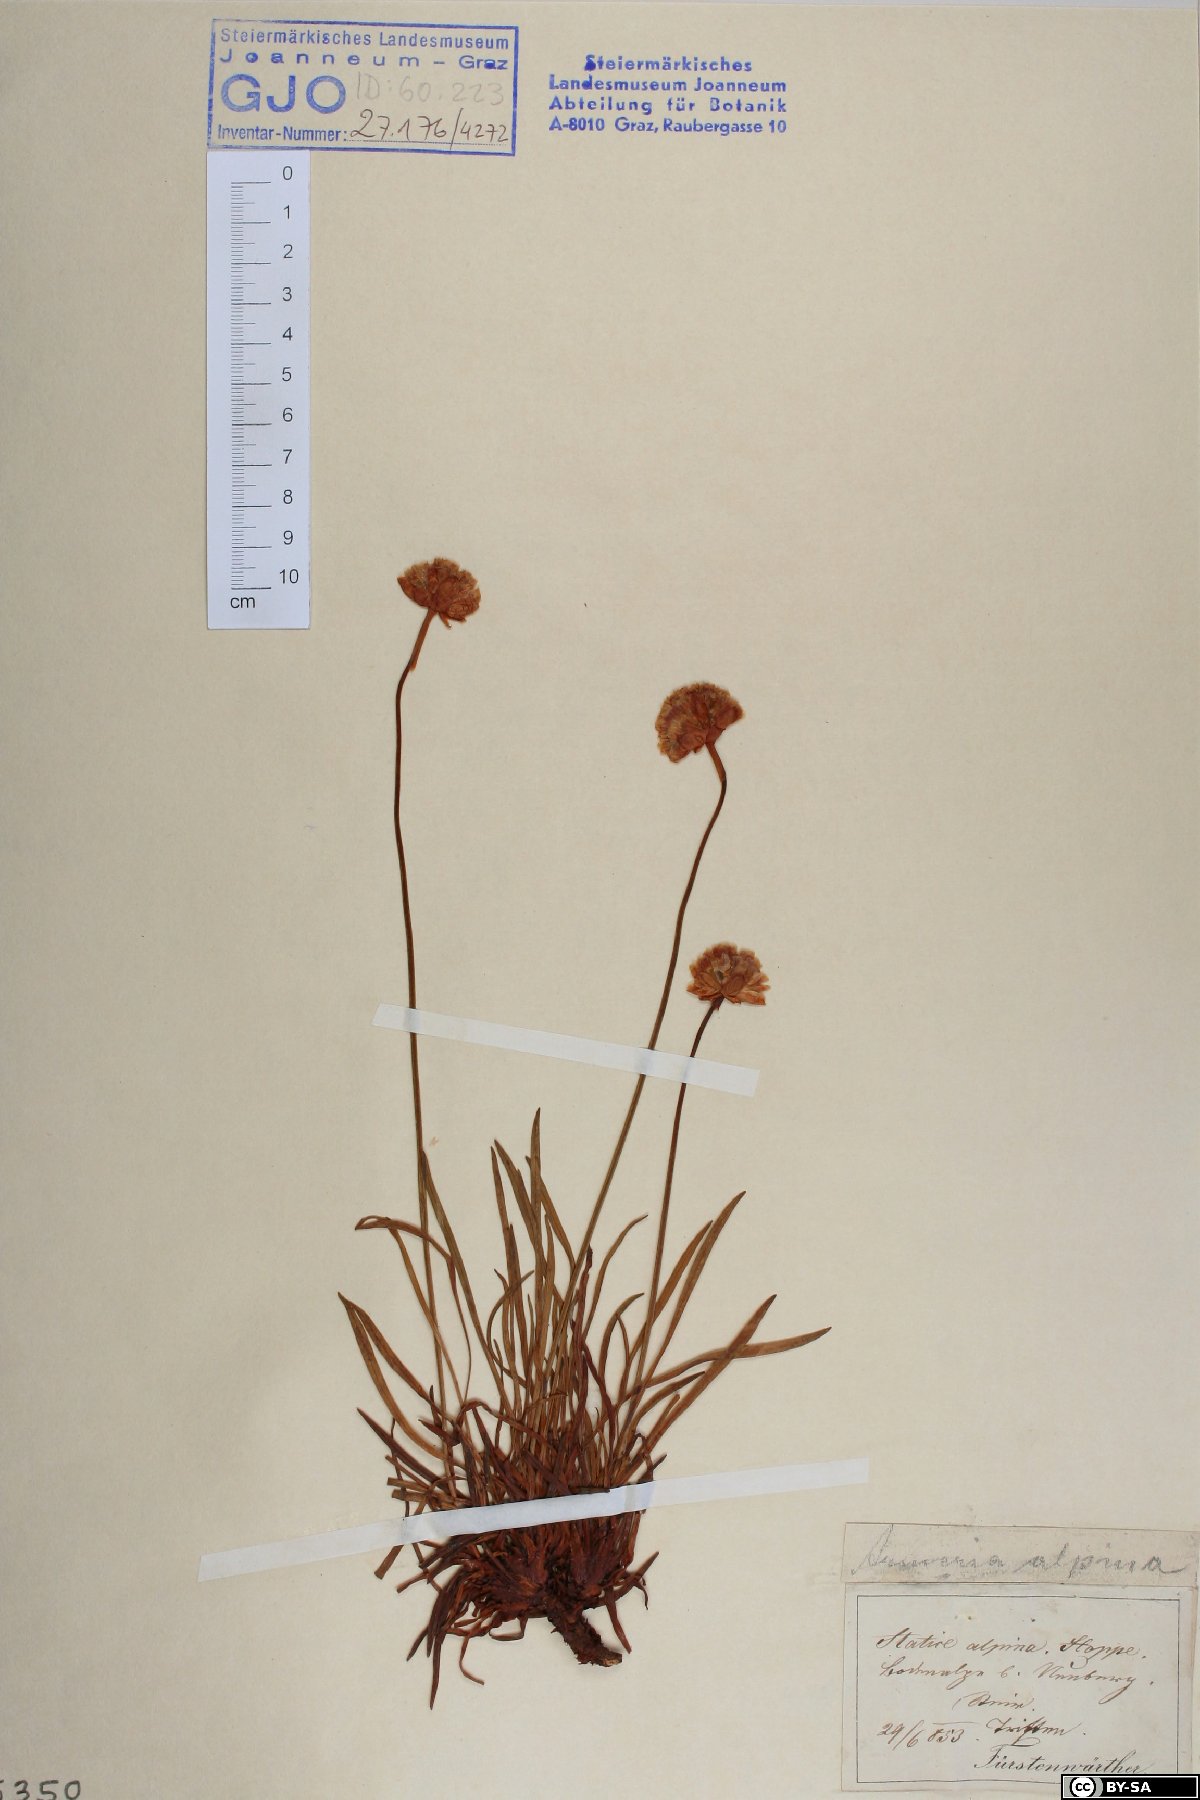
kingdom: Plantae
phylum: Tracheophyta
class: Magnoliopsida
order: Caryophyllales
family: Plumbaginaceae
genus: Armeria
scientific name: Armeria alpina
